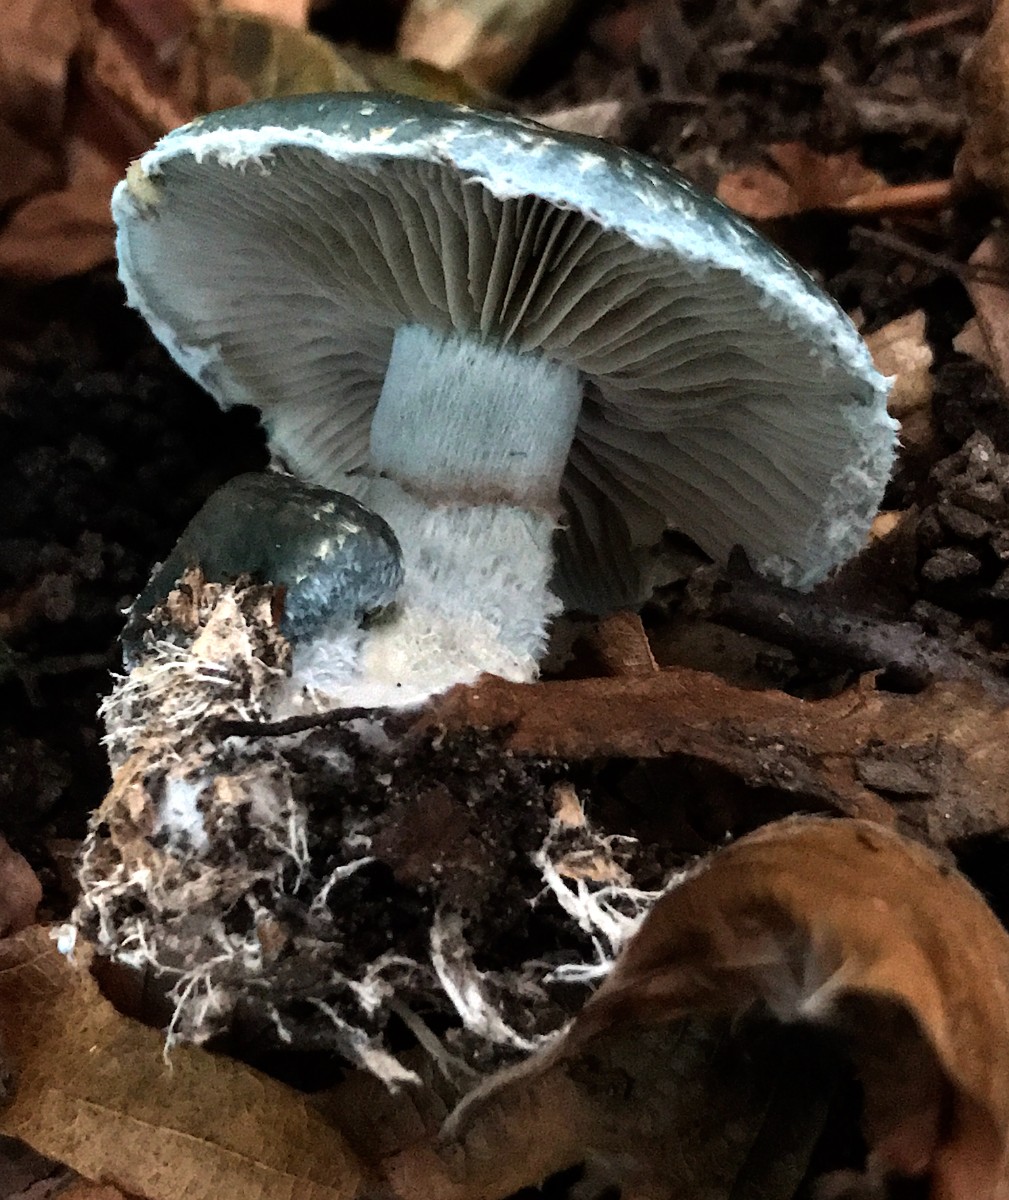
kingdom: Fungi
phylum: Basidiomycota
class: Agaricomycetes
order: Agaricales
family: Strophariaceae
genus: Stropharia
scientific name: Stropharia aeruginosa
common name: spanskgrøn bredblad
